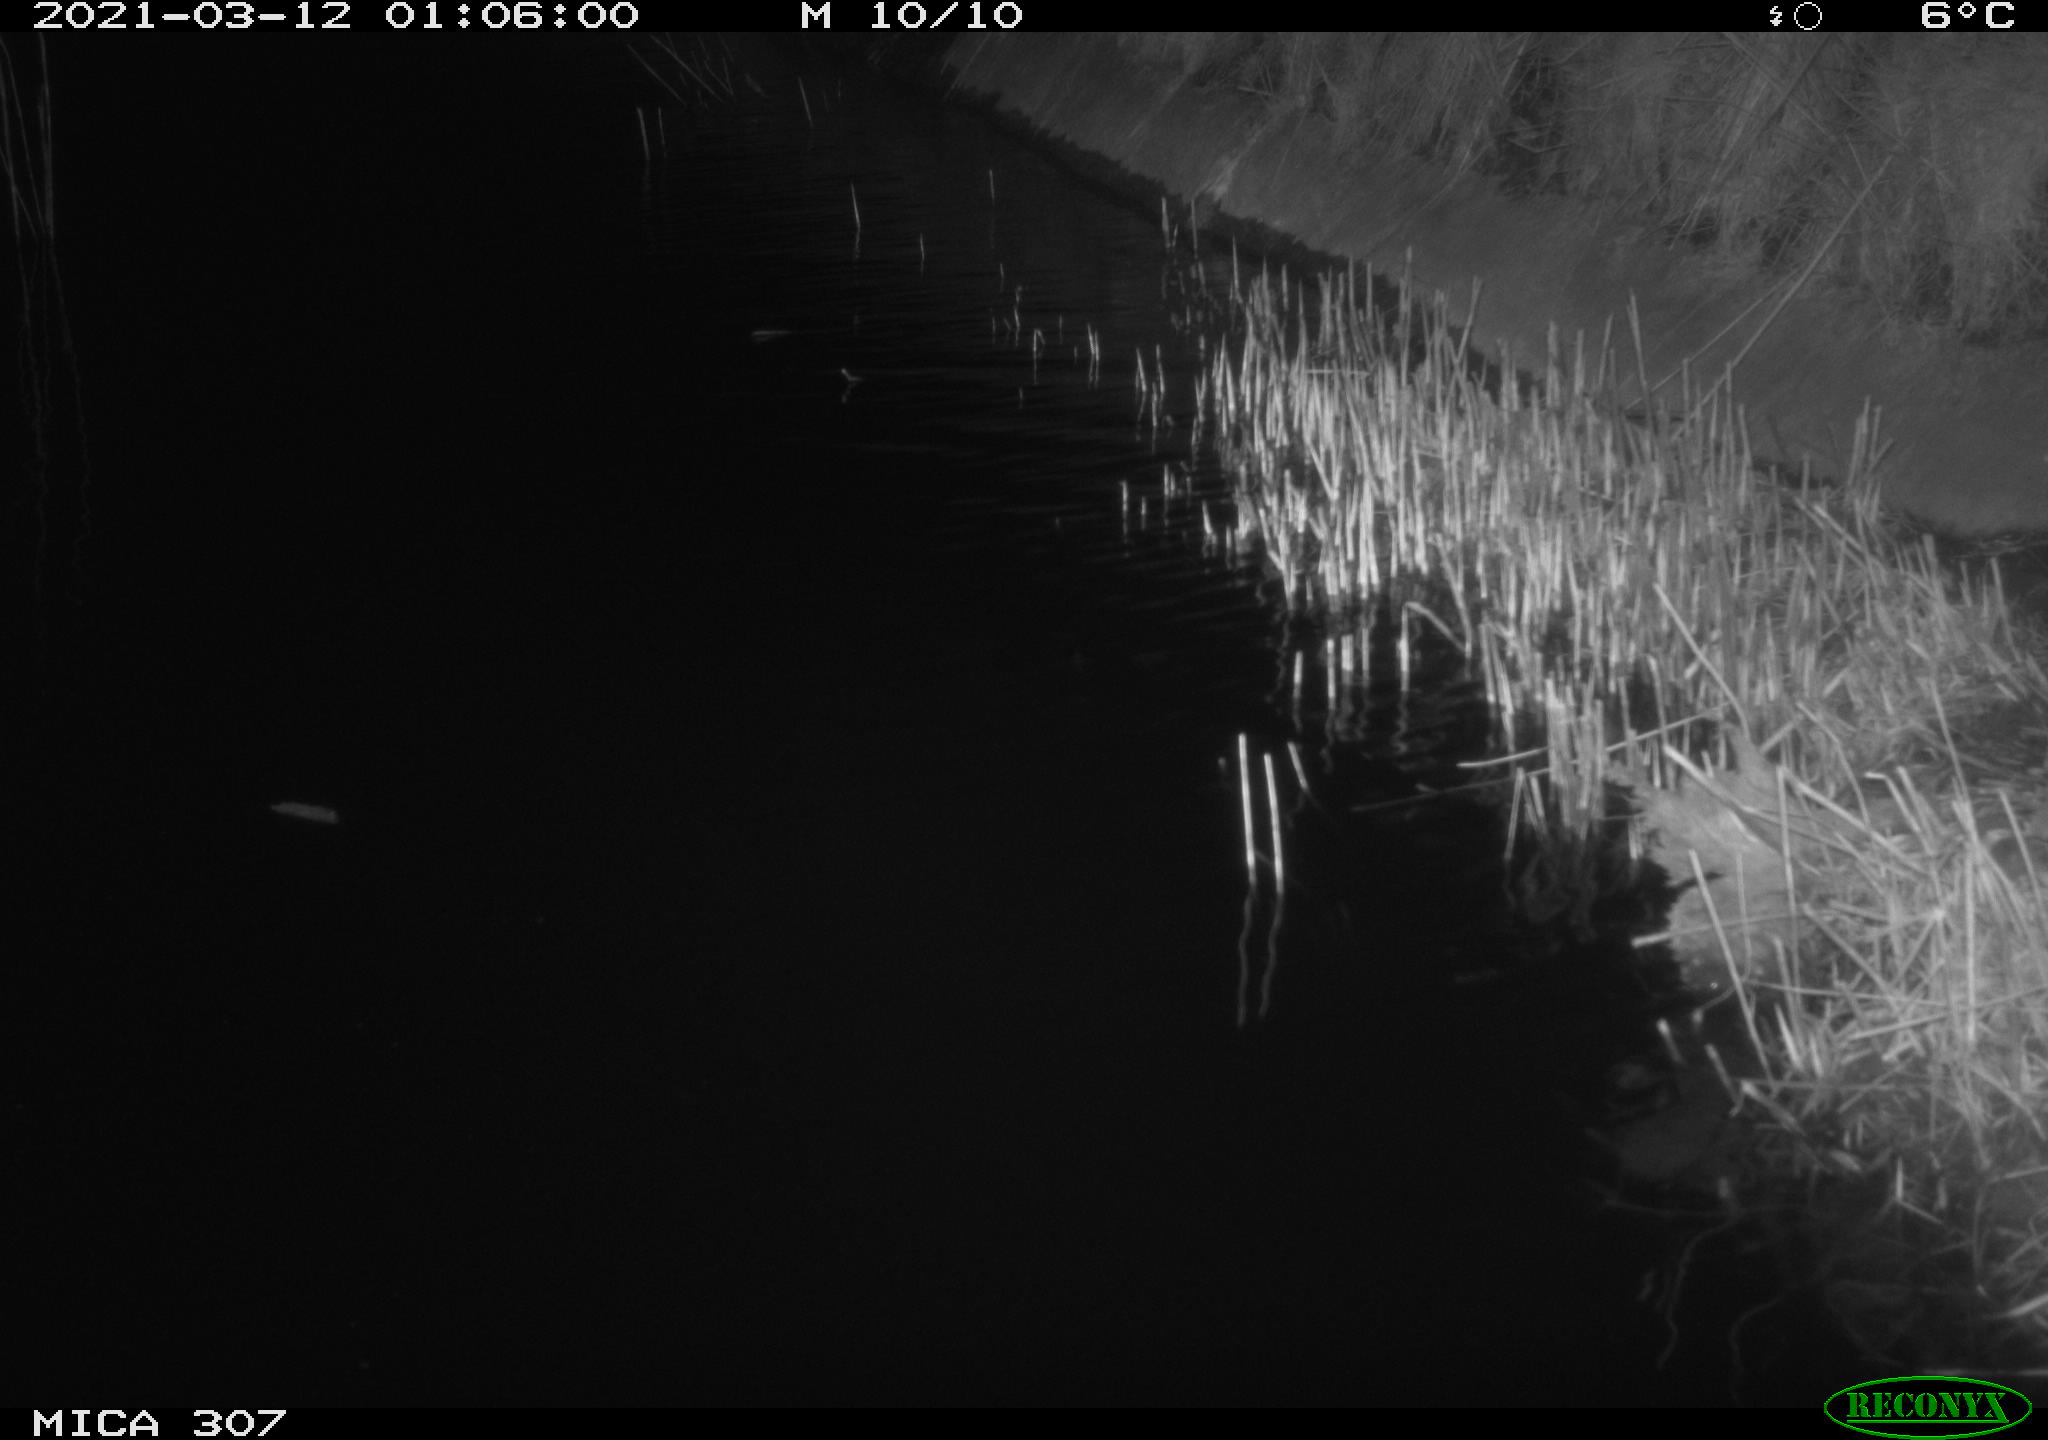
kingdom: Animalia
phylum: Chordata
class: Mammalia
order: Rodentia
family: Cricetidae
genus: Ondatra
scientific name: Ondatra zibethicus
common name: Muskrat
